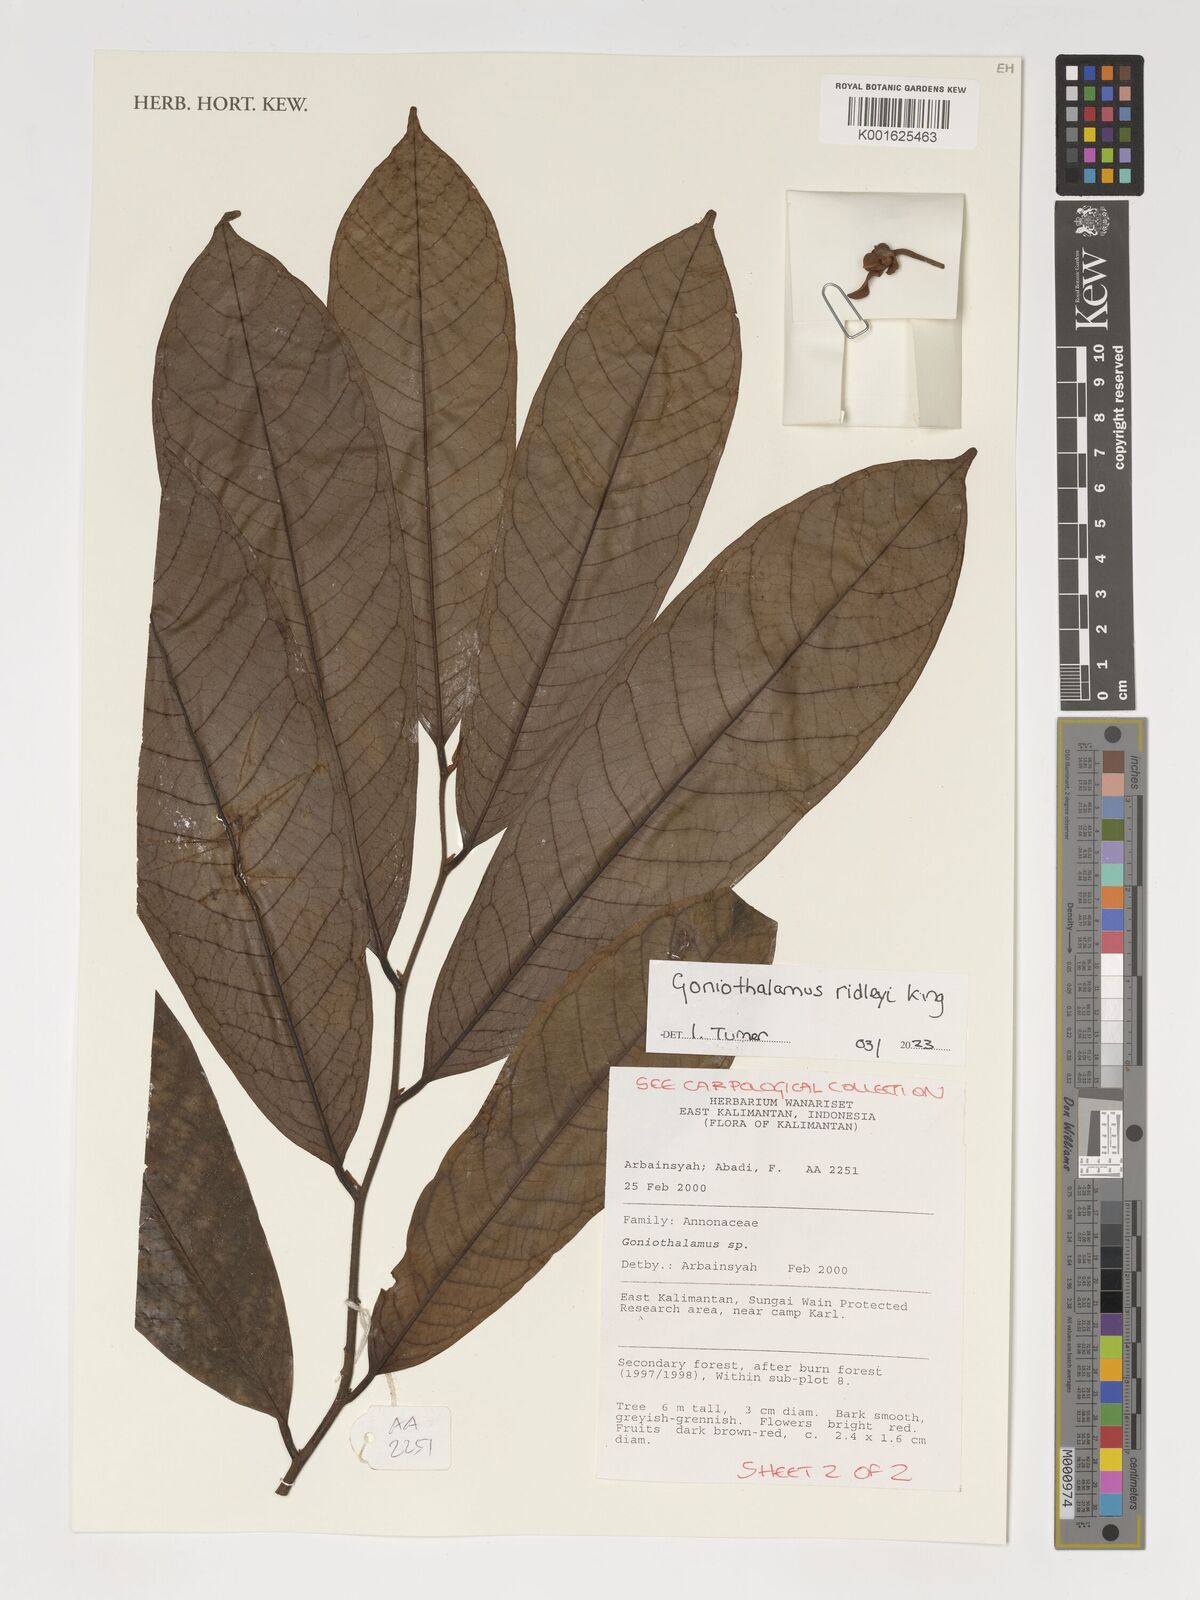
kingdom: Plantae
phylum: Tracheophyta
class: Magnoliopsida
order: Magnoliales
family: Annonaceae
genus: Goniothalamus
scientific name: Goniothalamus ridleyi
